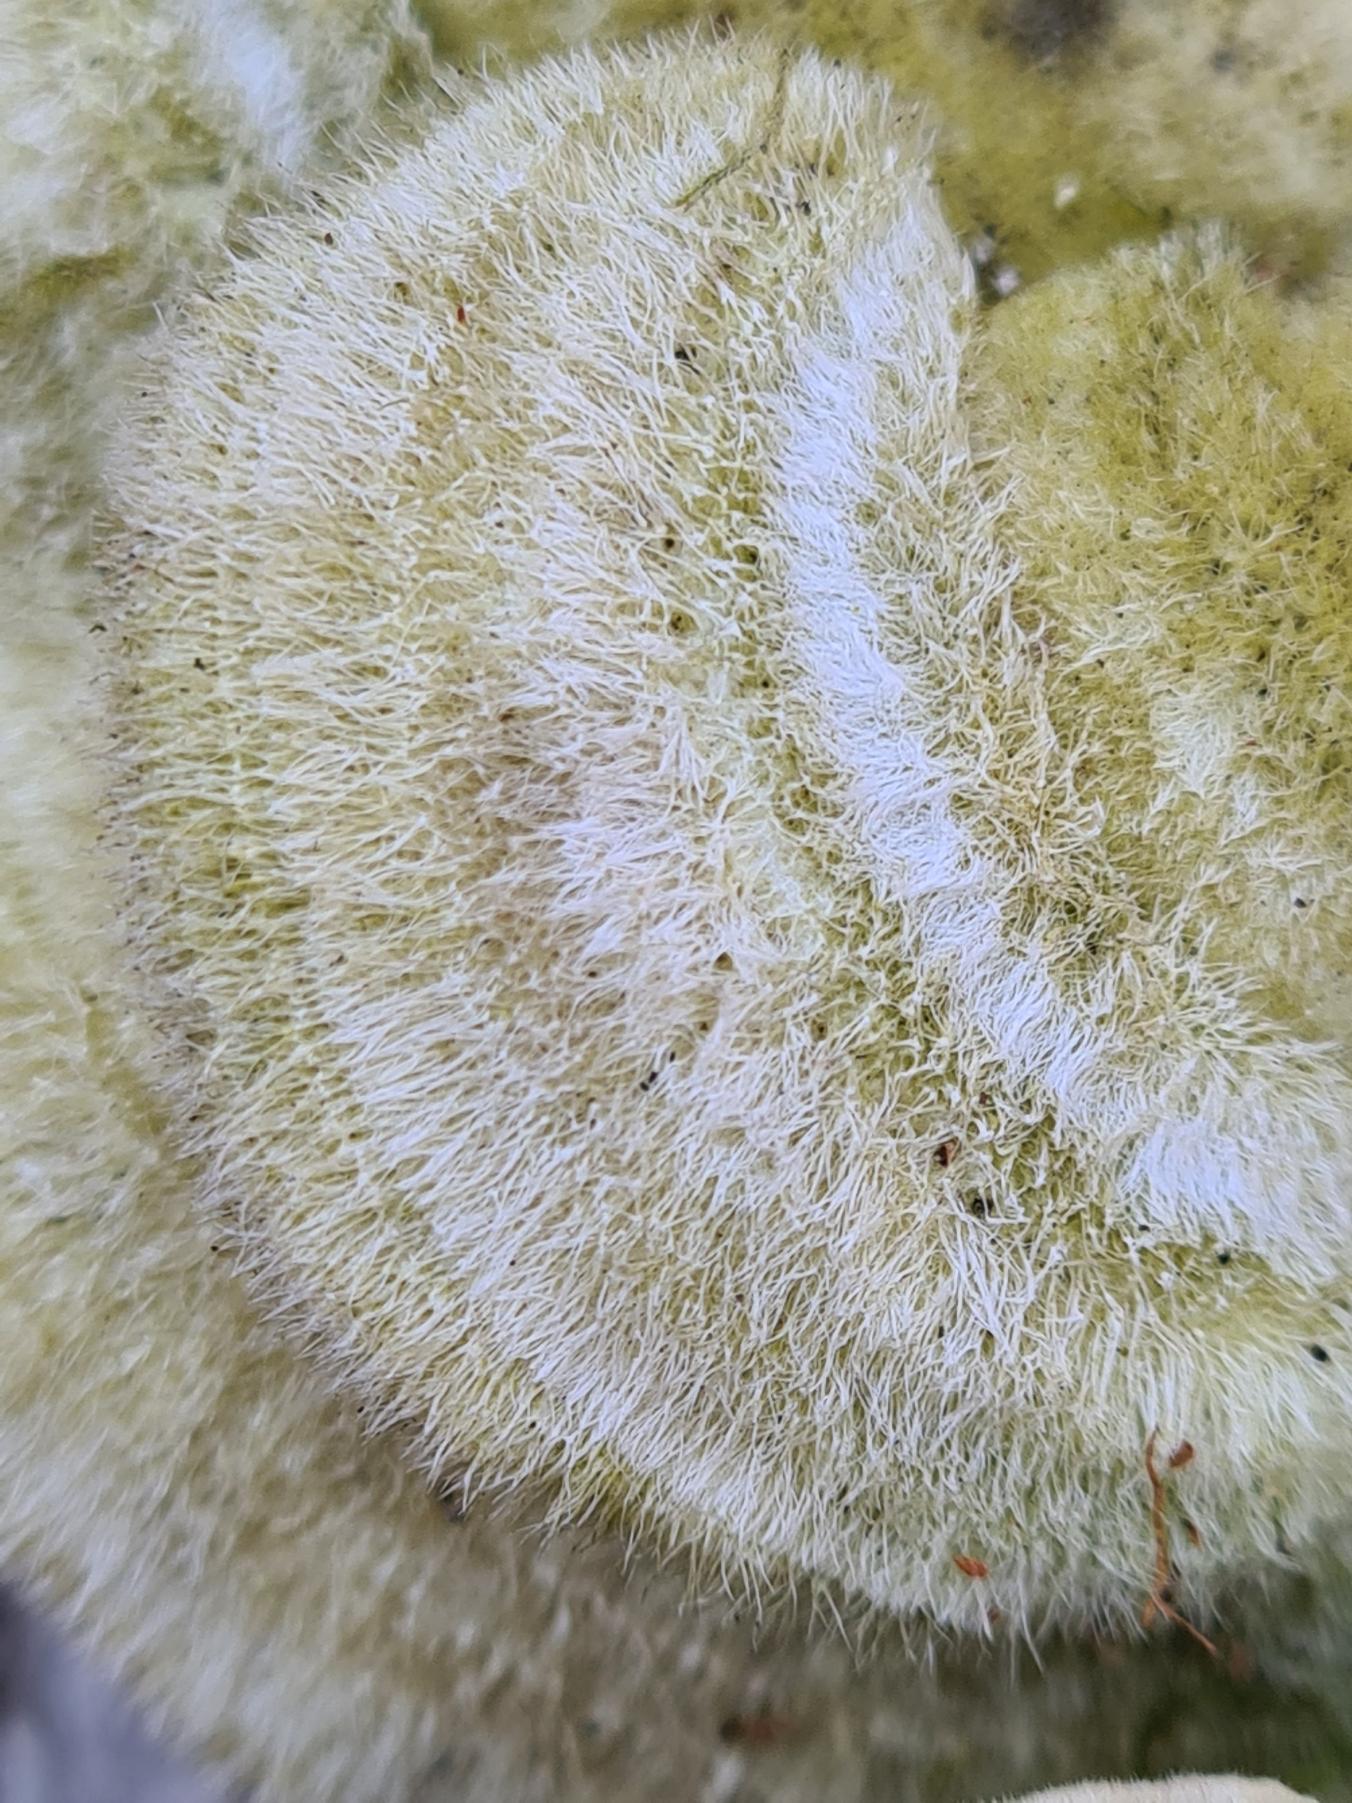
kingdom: Fungi
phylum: Basidiomycota
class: Agaricomycetes
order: Polyporales
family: Polyporaceae
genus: Trametes
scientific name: Trametes hirsuta
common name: Håret læderporesvamp
